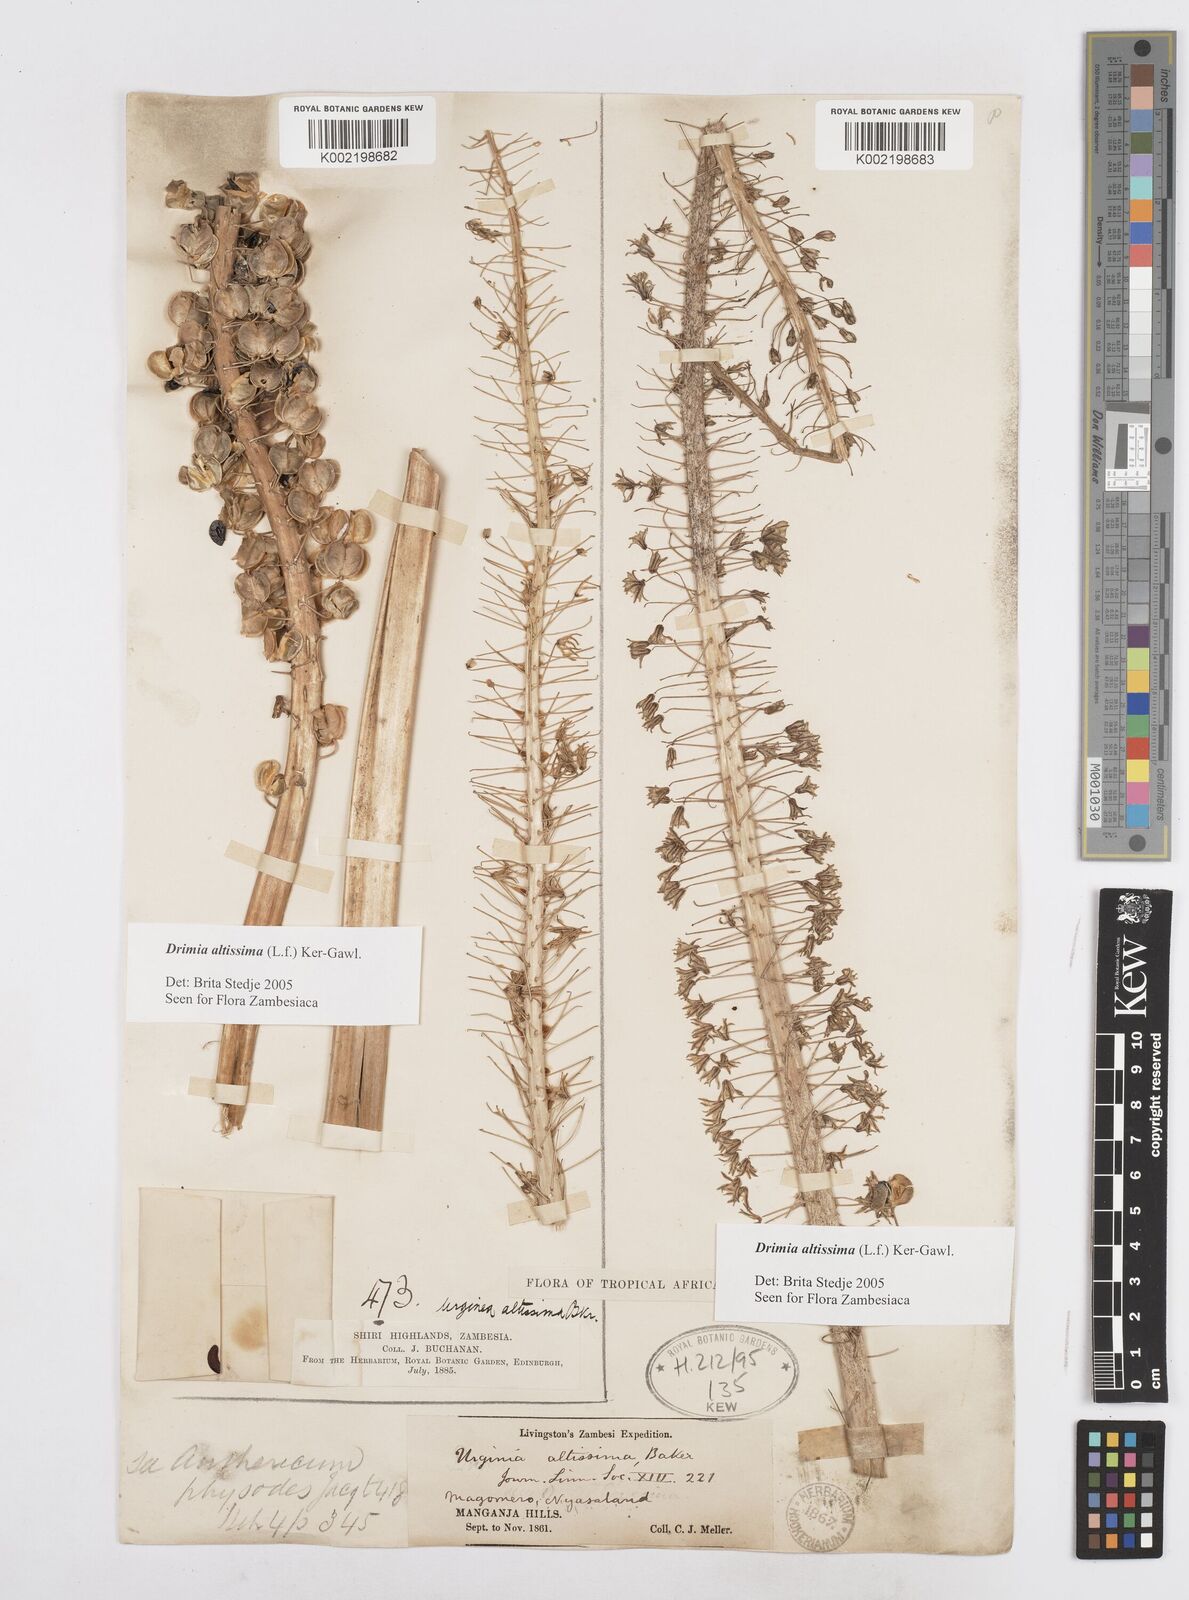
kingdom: Plantae
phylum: Tracheophyta
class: Liliopsida
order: Asparagales
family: Asparagaceae
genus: Drimia
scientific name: Drimia altissima
